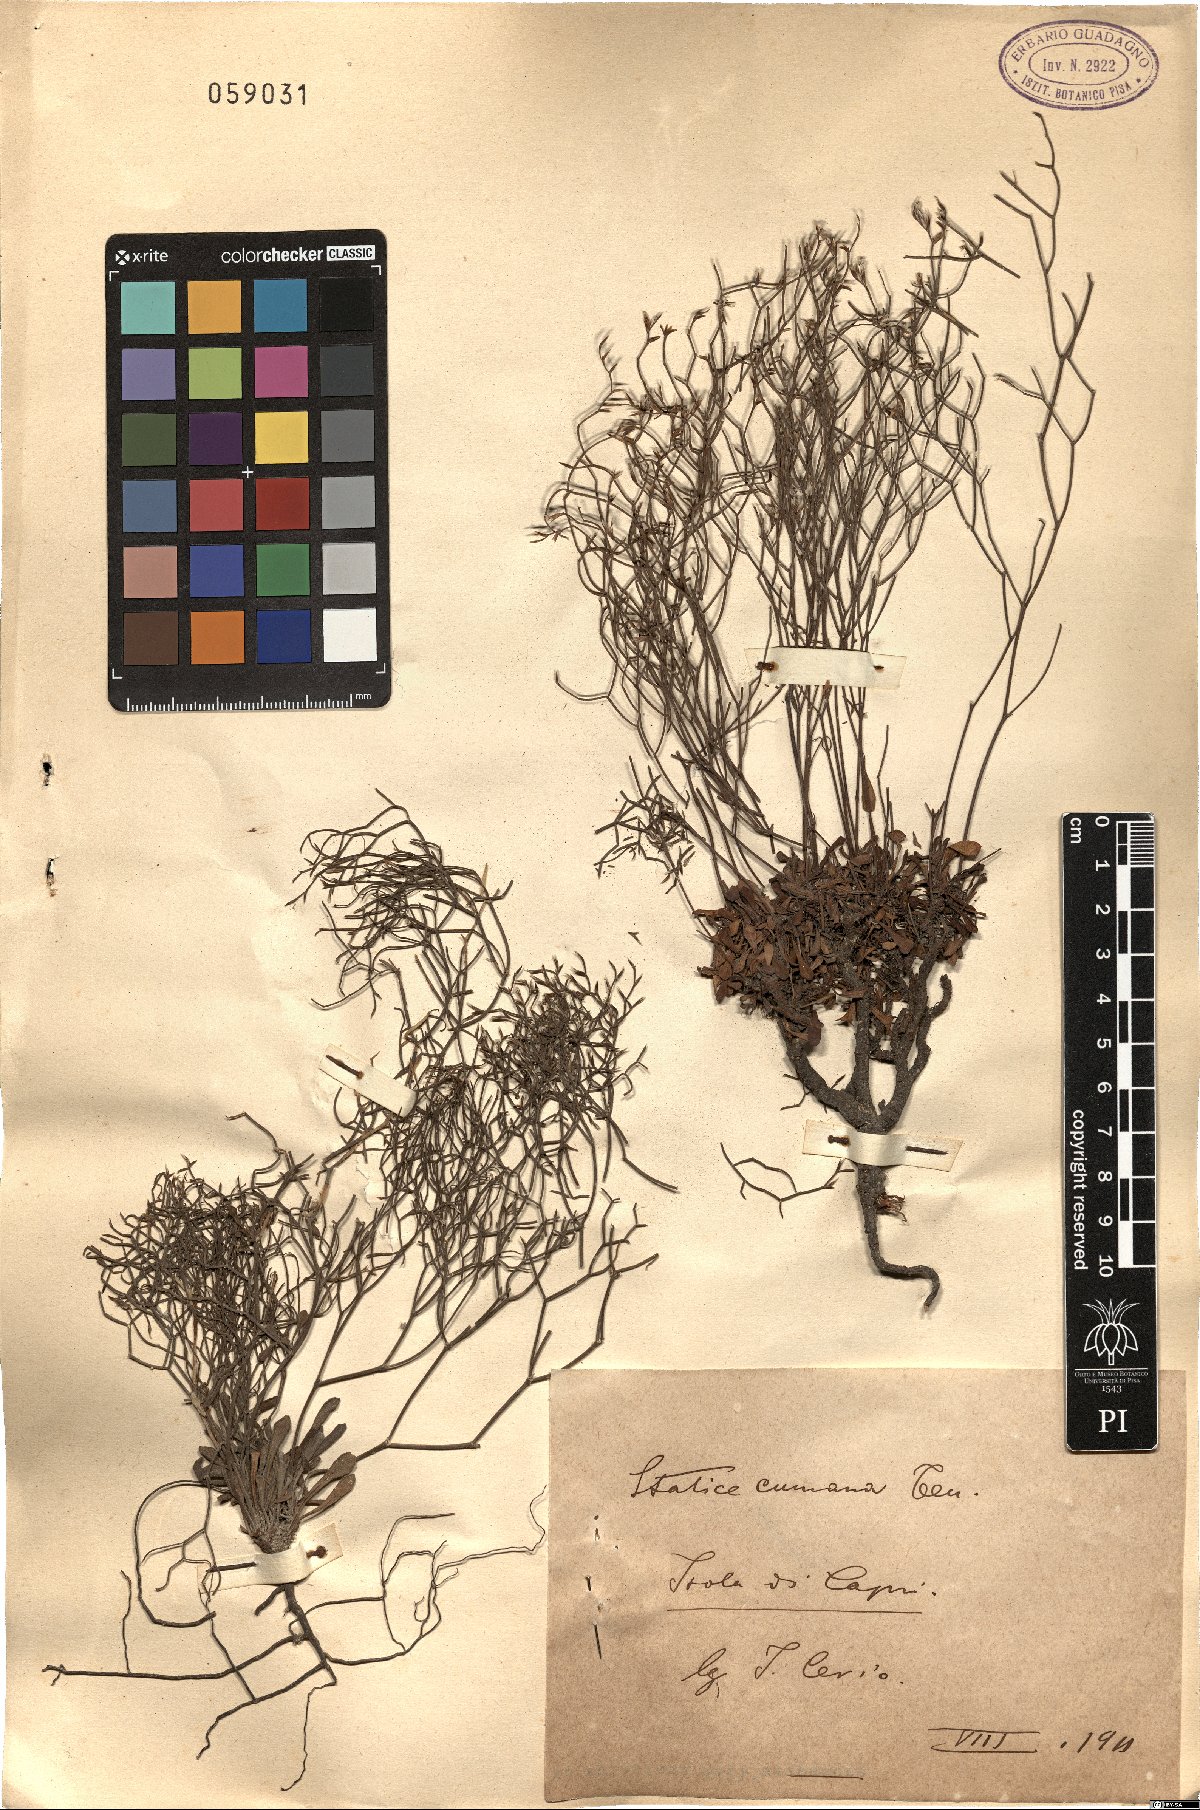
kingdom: Plantae
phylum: Tracheophyta
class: Magnoliopsida
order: Caryophyllales
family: Plumbaginaceae
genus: Limonium
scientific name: Limonium cumanum
